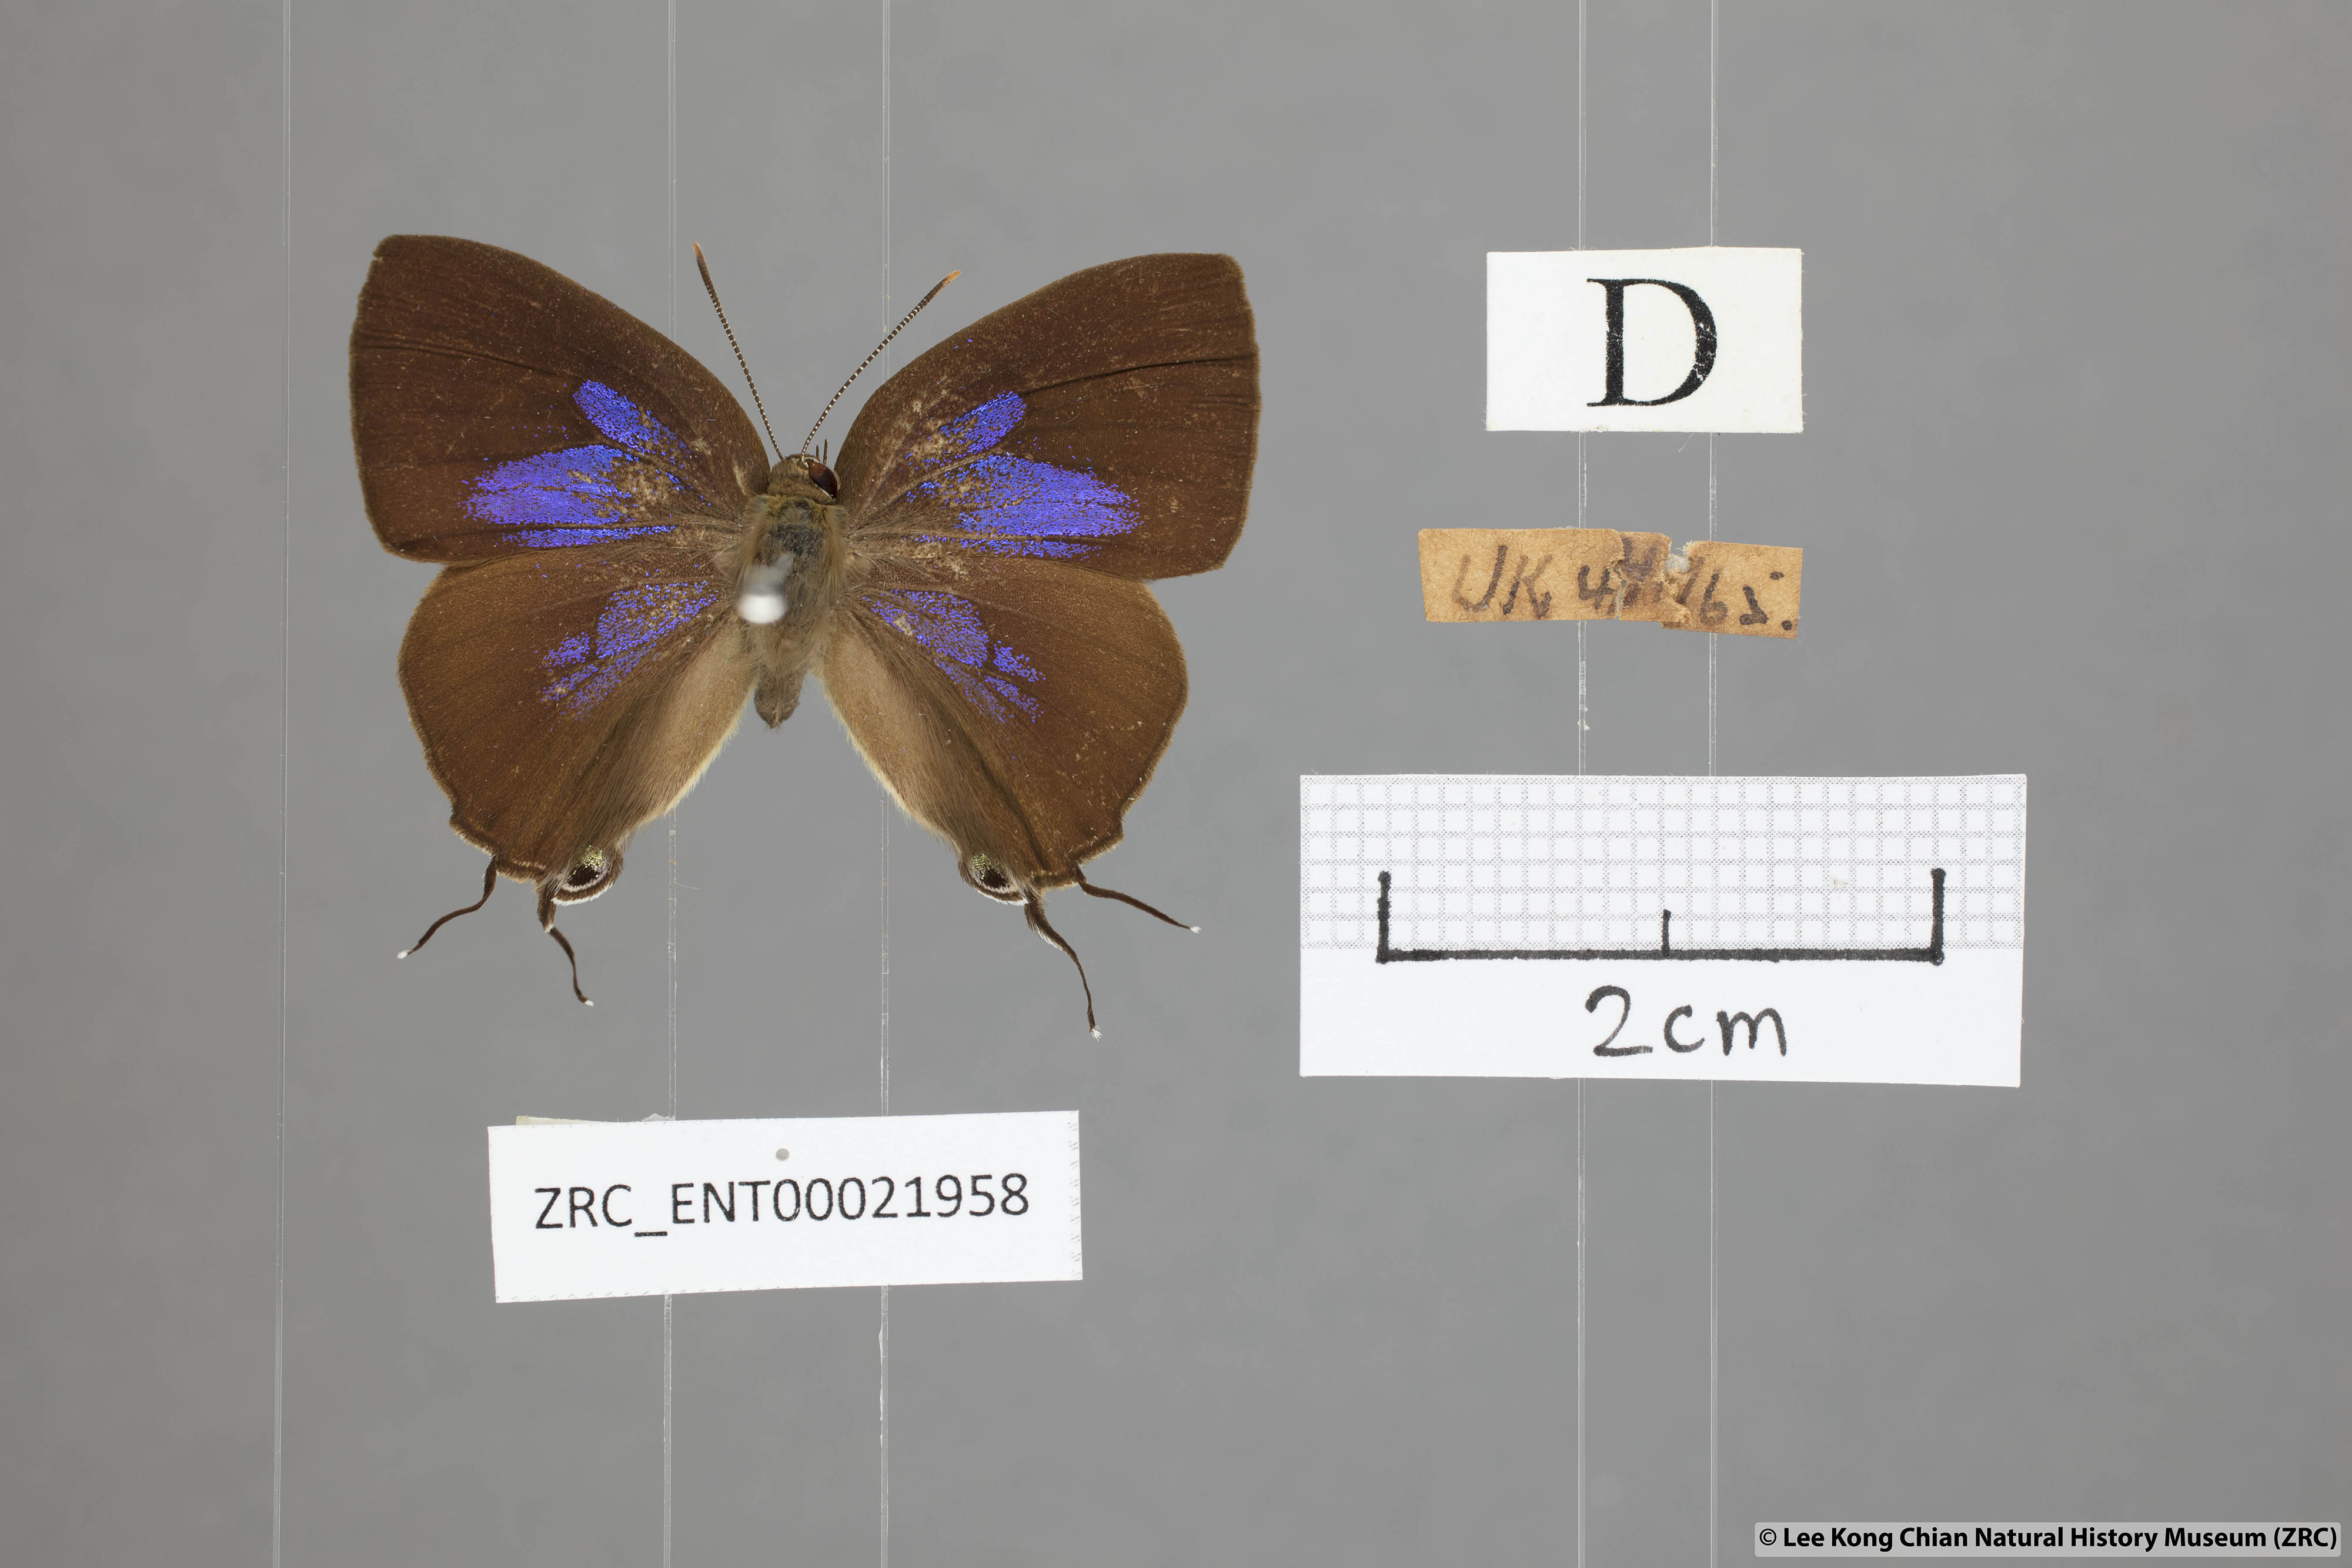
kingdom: Animalia
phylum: Arthropoda
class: Insecta
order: Lepidoptera
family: Lycaenidae
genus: Remelana
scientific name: Remelana jangala
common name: Chocolate royal
